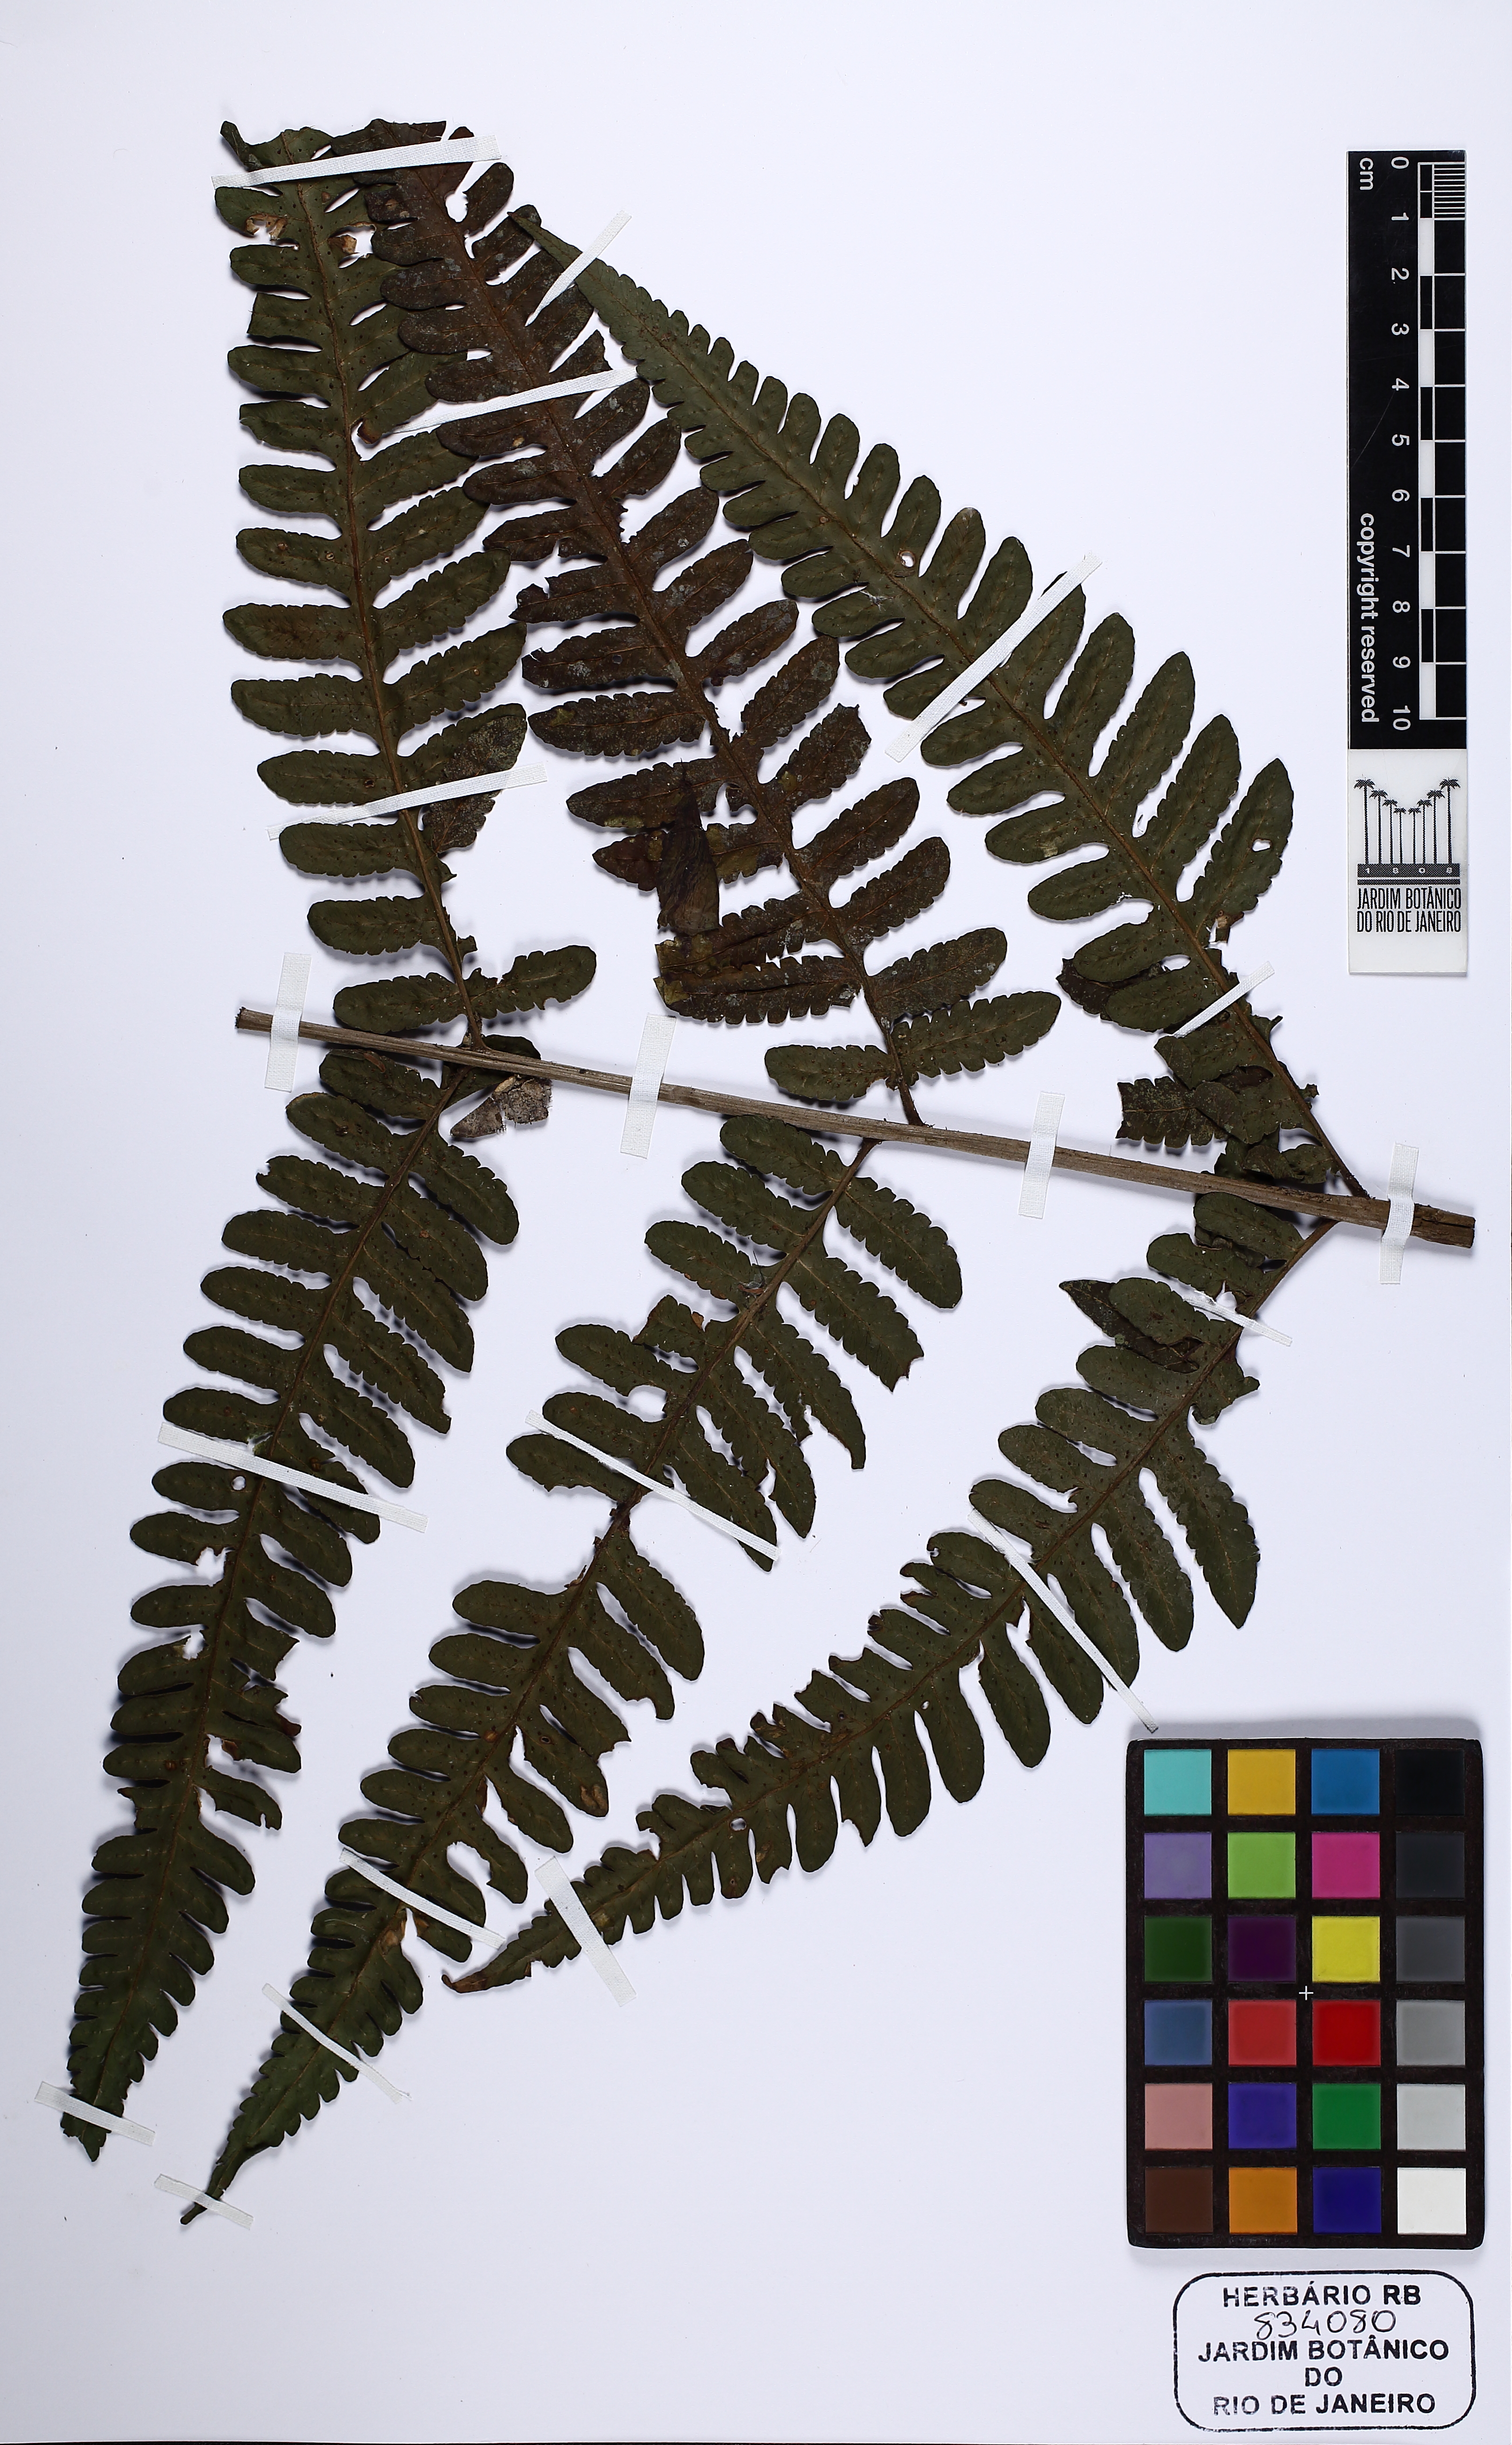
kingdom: Plantae
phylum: Tracheophyta
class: Polypodiopsida
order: Polypodiales
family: Dryopteridaceae
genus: Megalastrum
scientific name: Megalastrum
